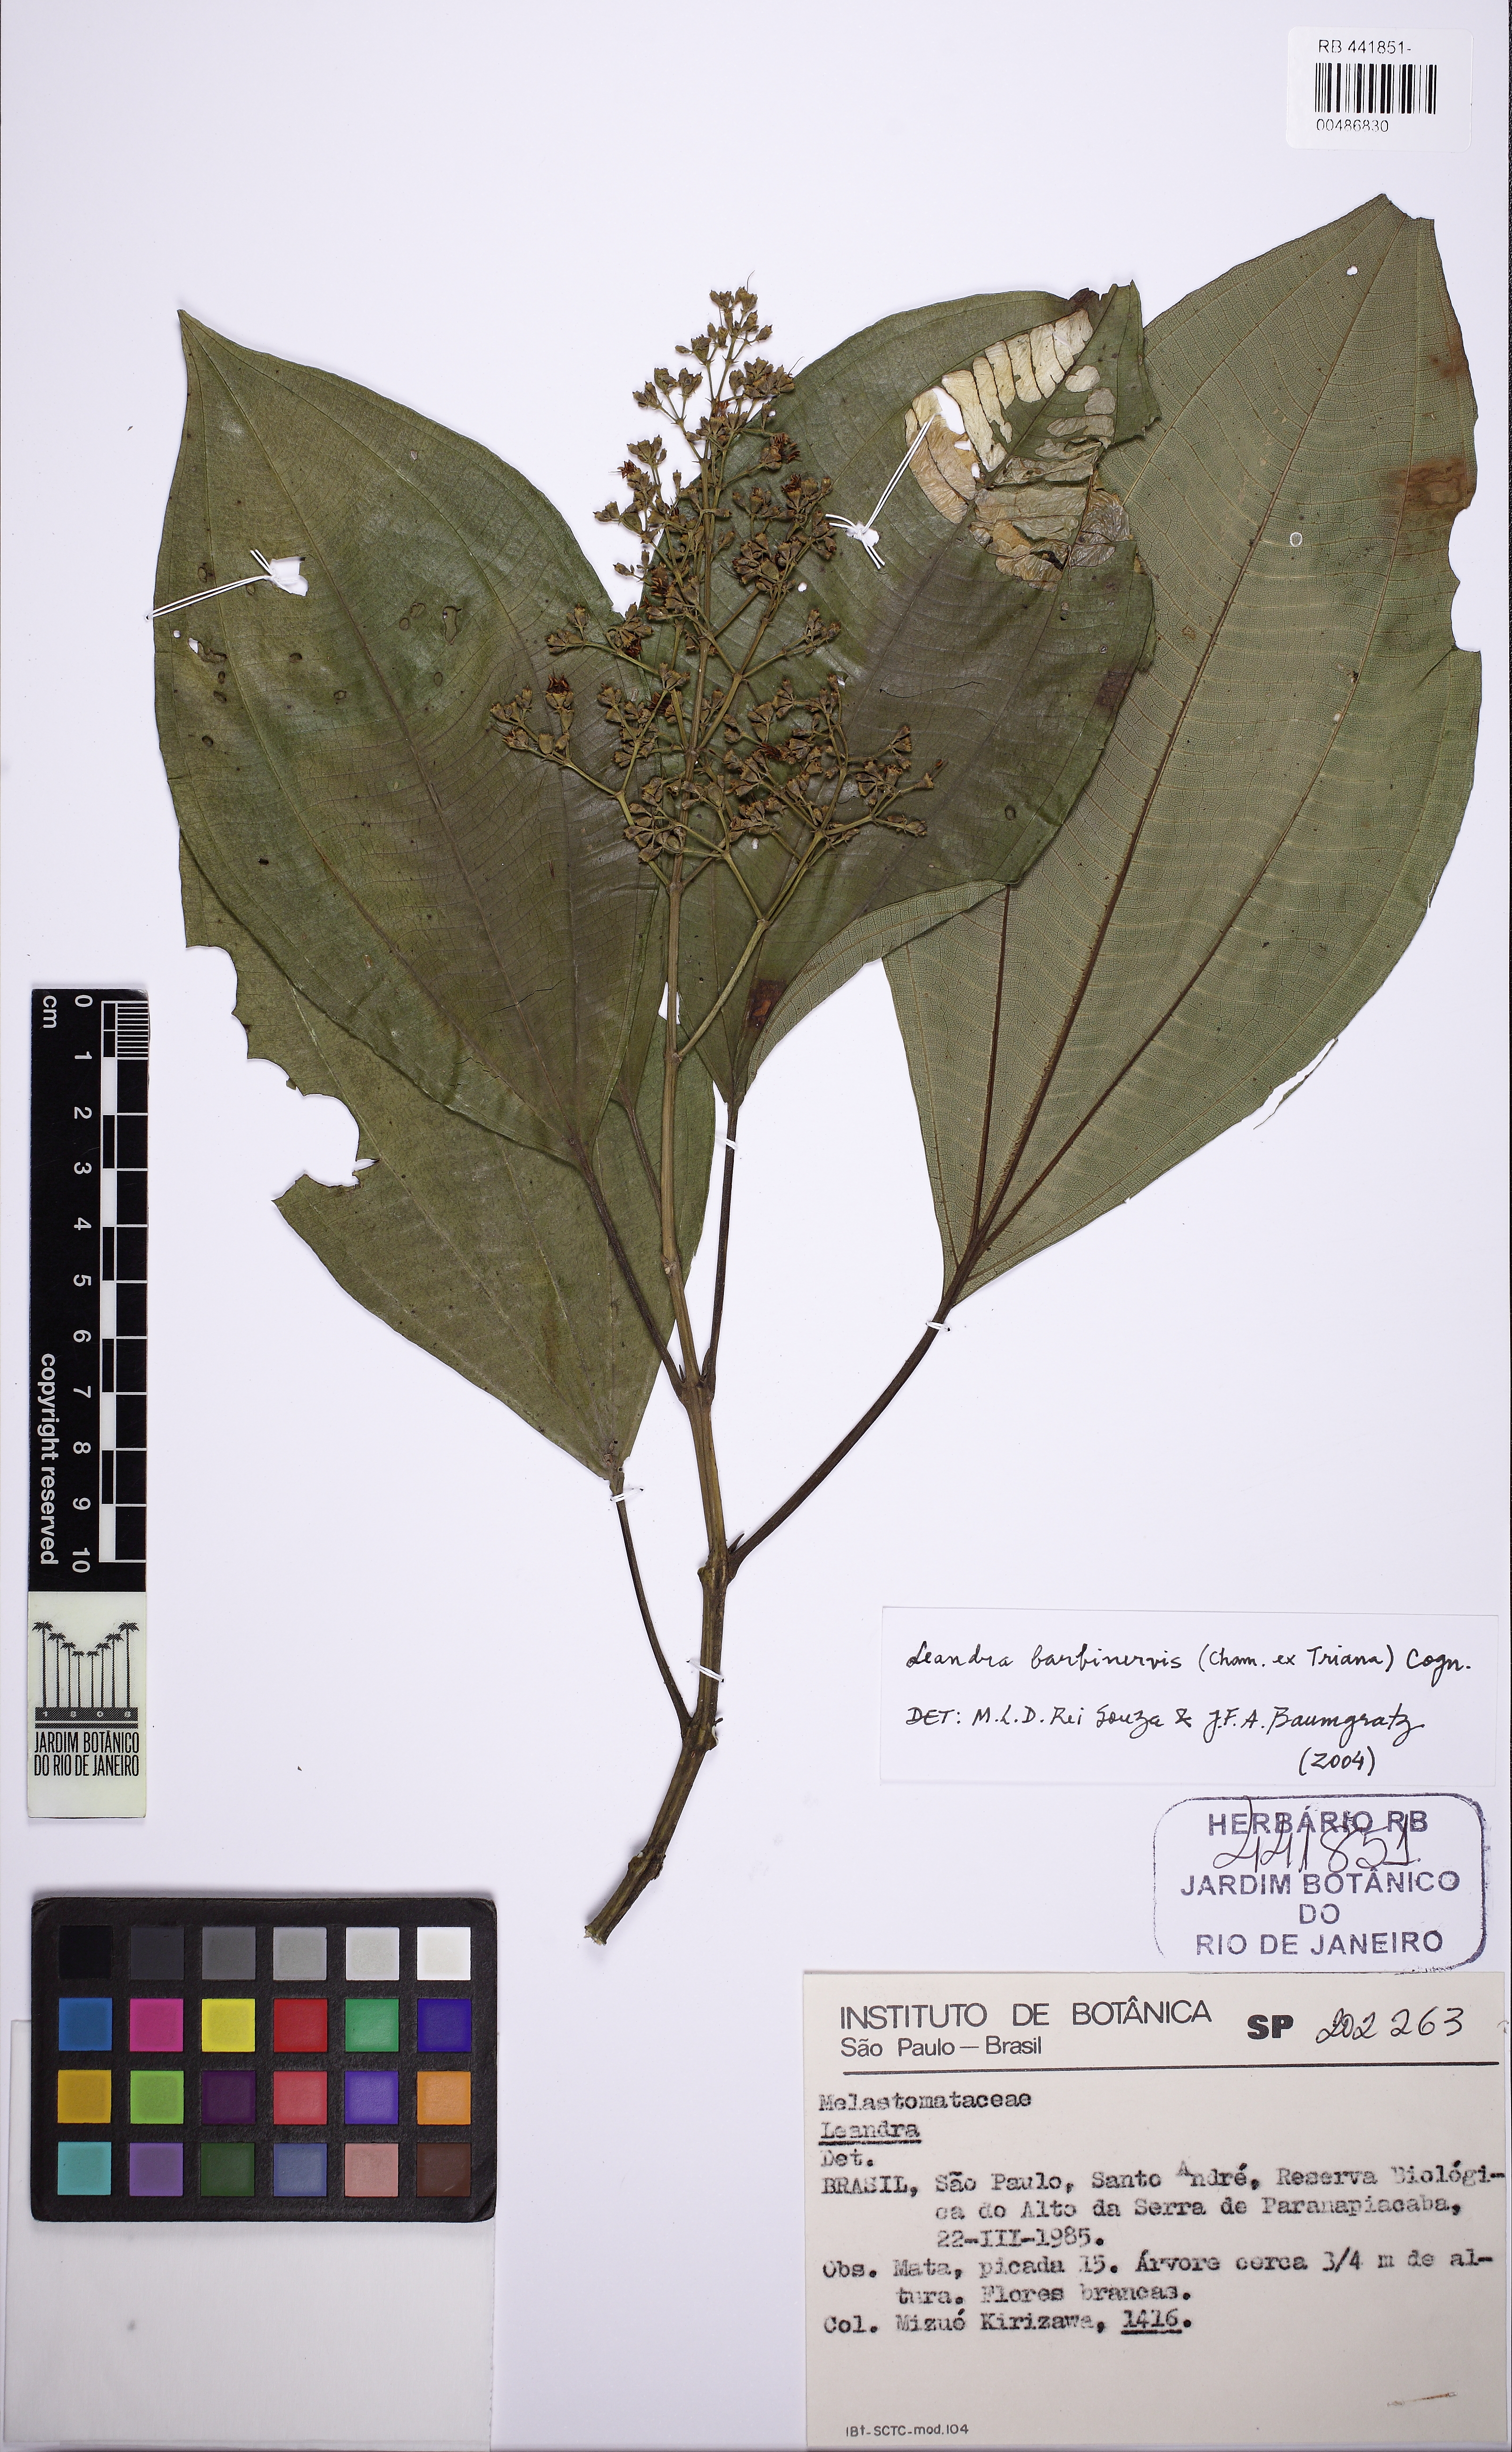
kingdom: Plantae
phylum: Tracheophyta
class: Magnoliopsida
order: Myrtales
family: Melastomataceae
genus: Miconia
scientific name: Miconia trauninensis
